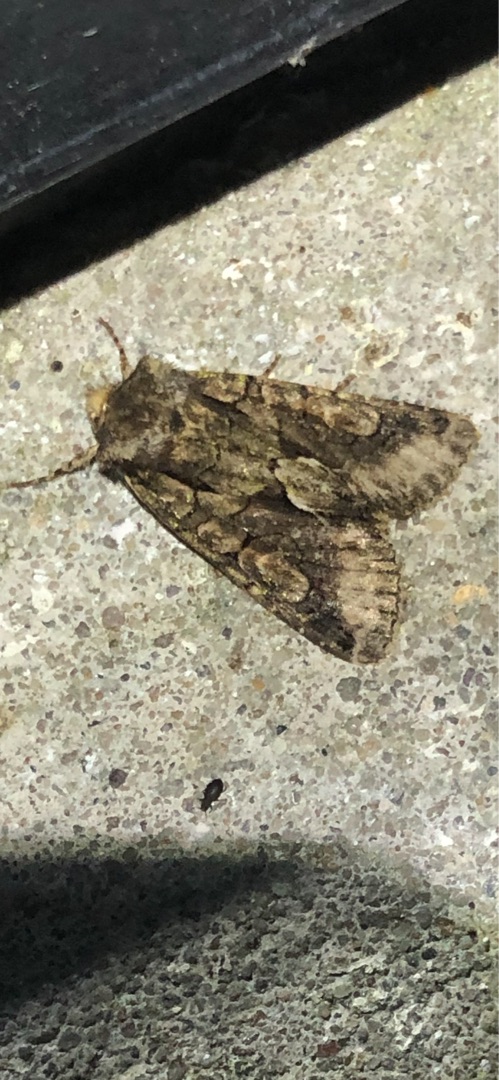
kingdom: Animalia
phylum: Arthropoda
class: Insecta
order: Lepidoptera
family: Noctuidae
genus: Allophyes
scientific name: Allophyes oxyacanthae
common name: Tjørneugle
